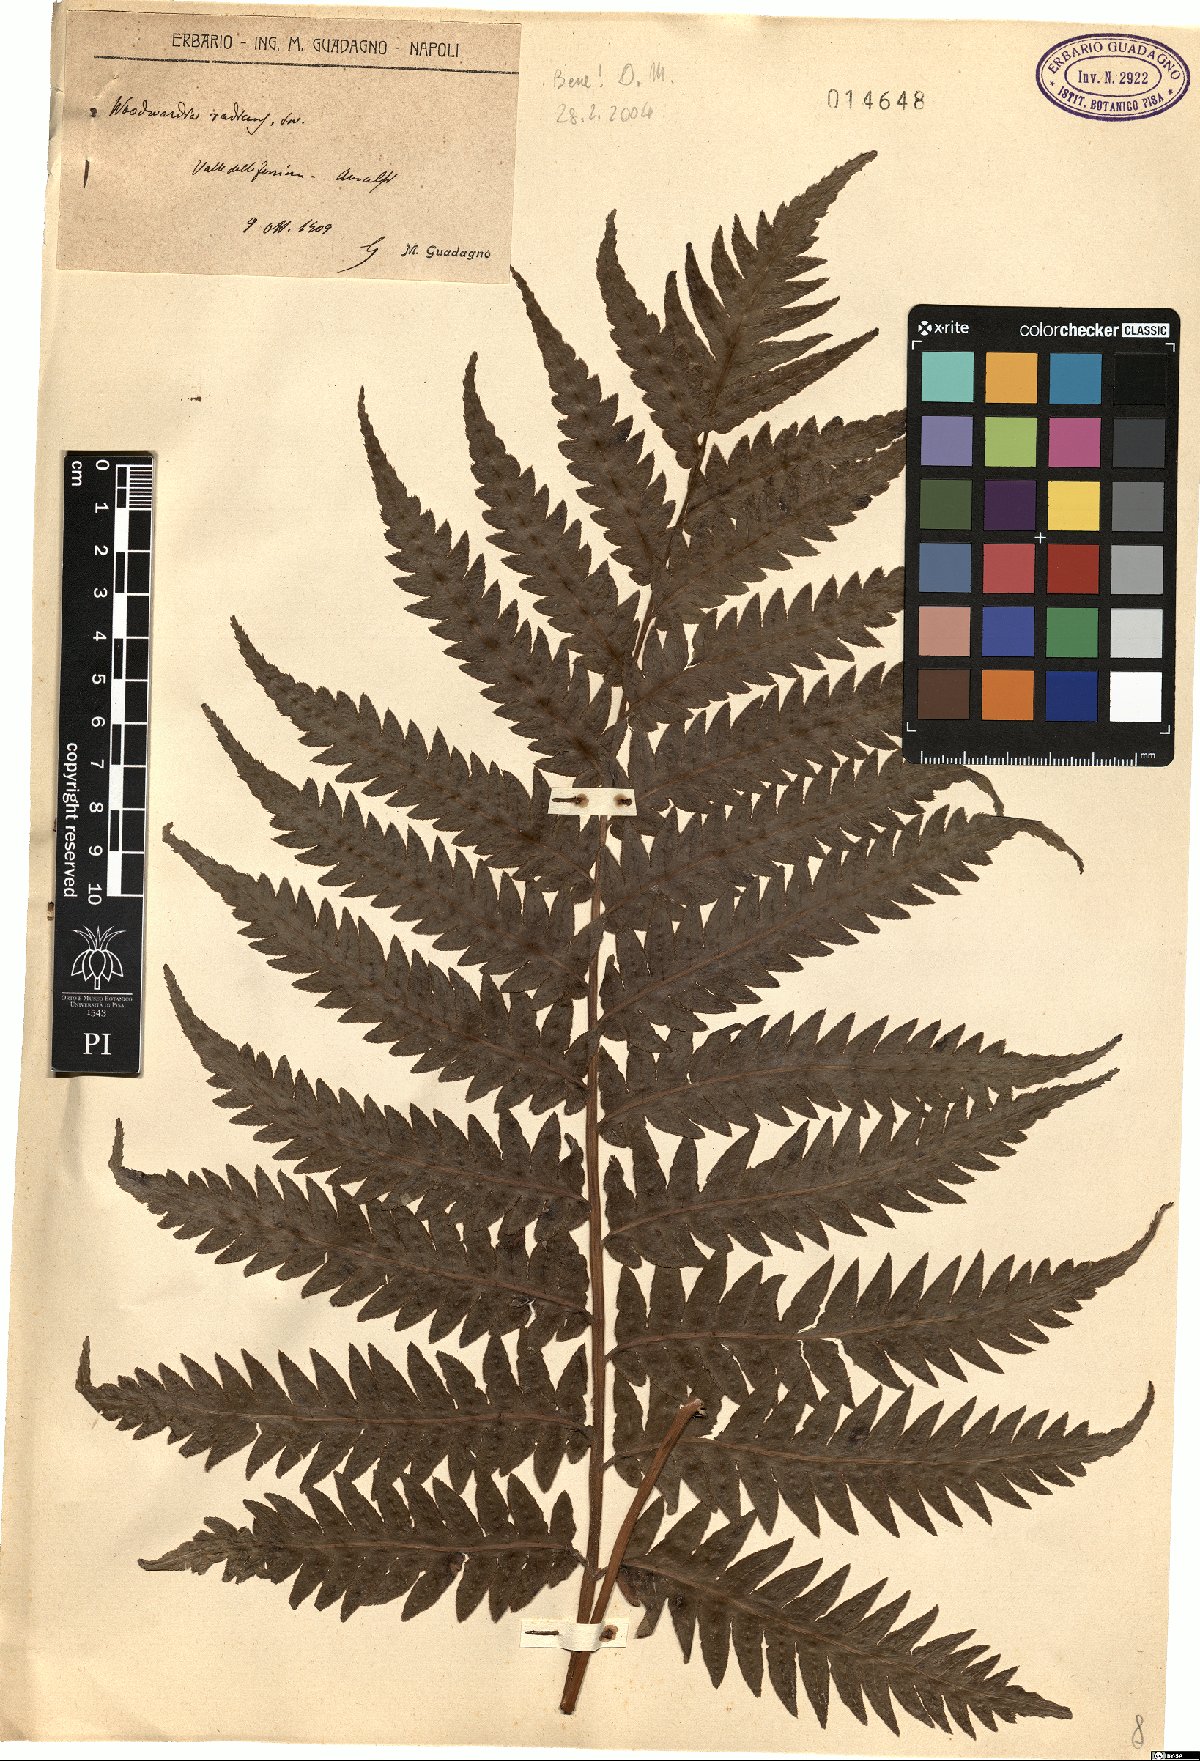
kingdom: Plantae
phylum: Tracheophyta
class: Polypodiopsida
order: Polypodiales
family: Blechnaceae
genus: Woodwardia
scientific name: Woodwardia radicans
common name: Rooting chainfern
